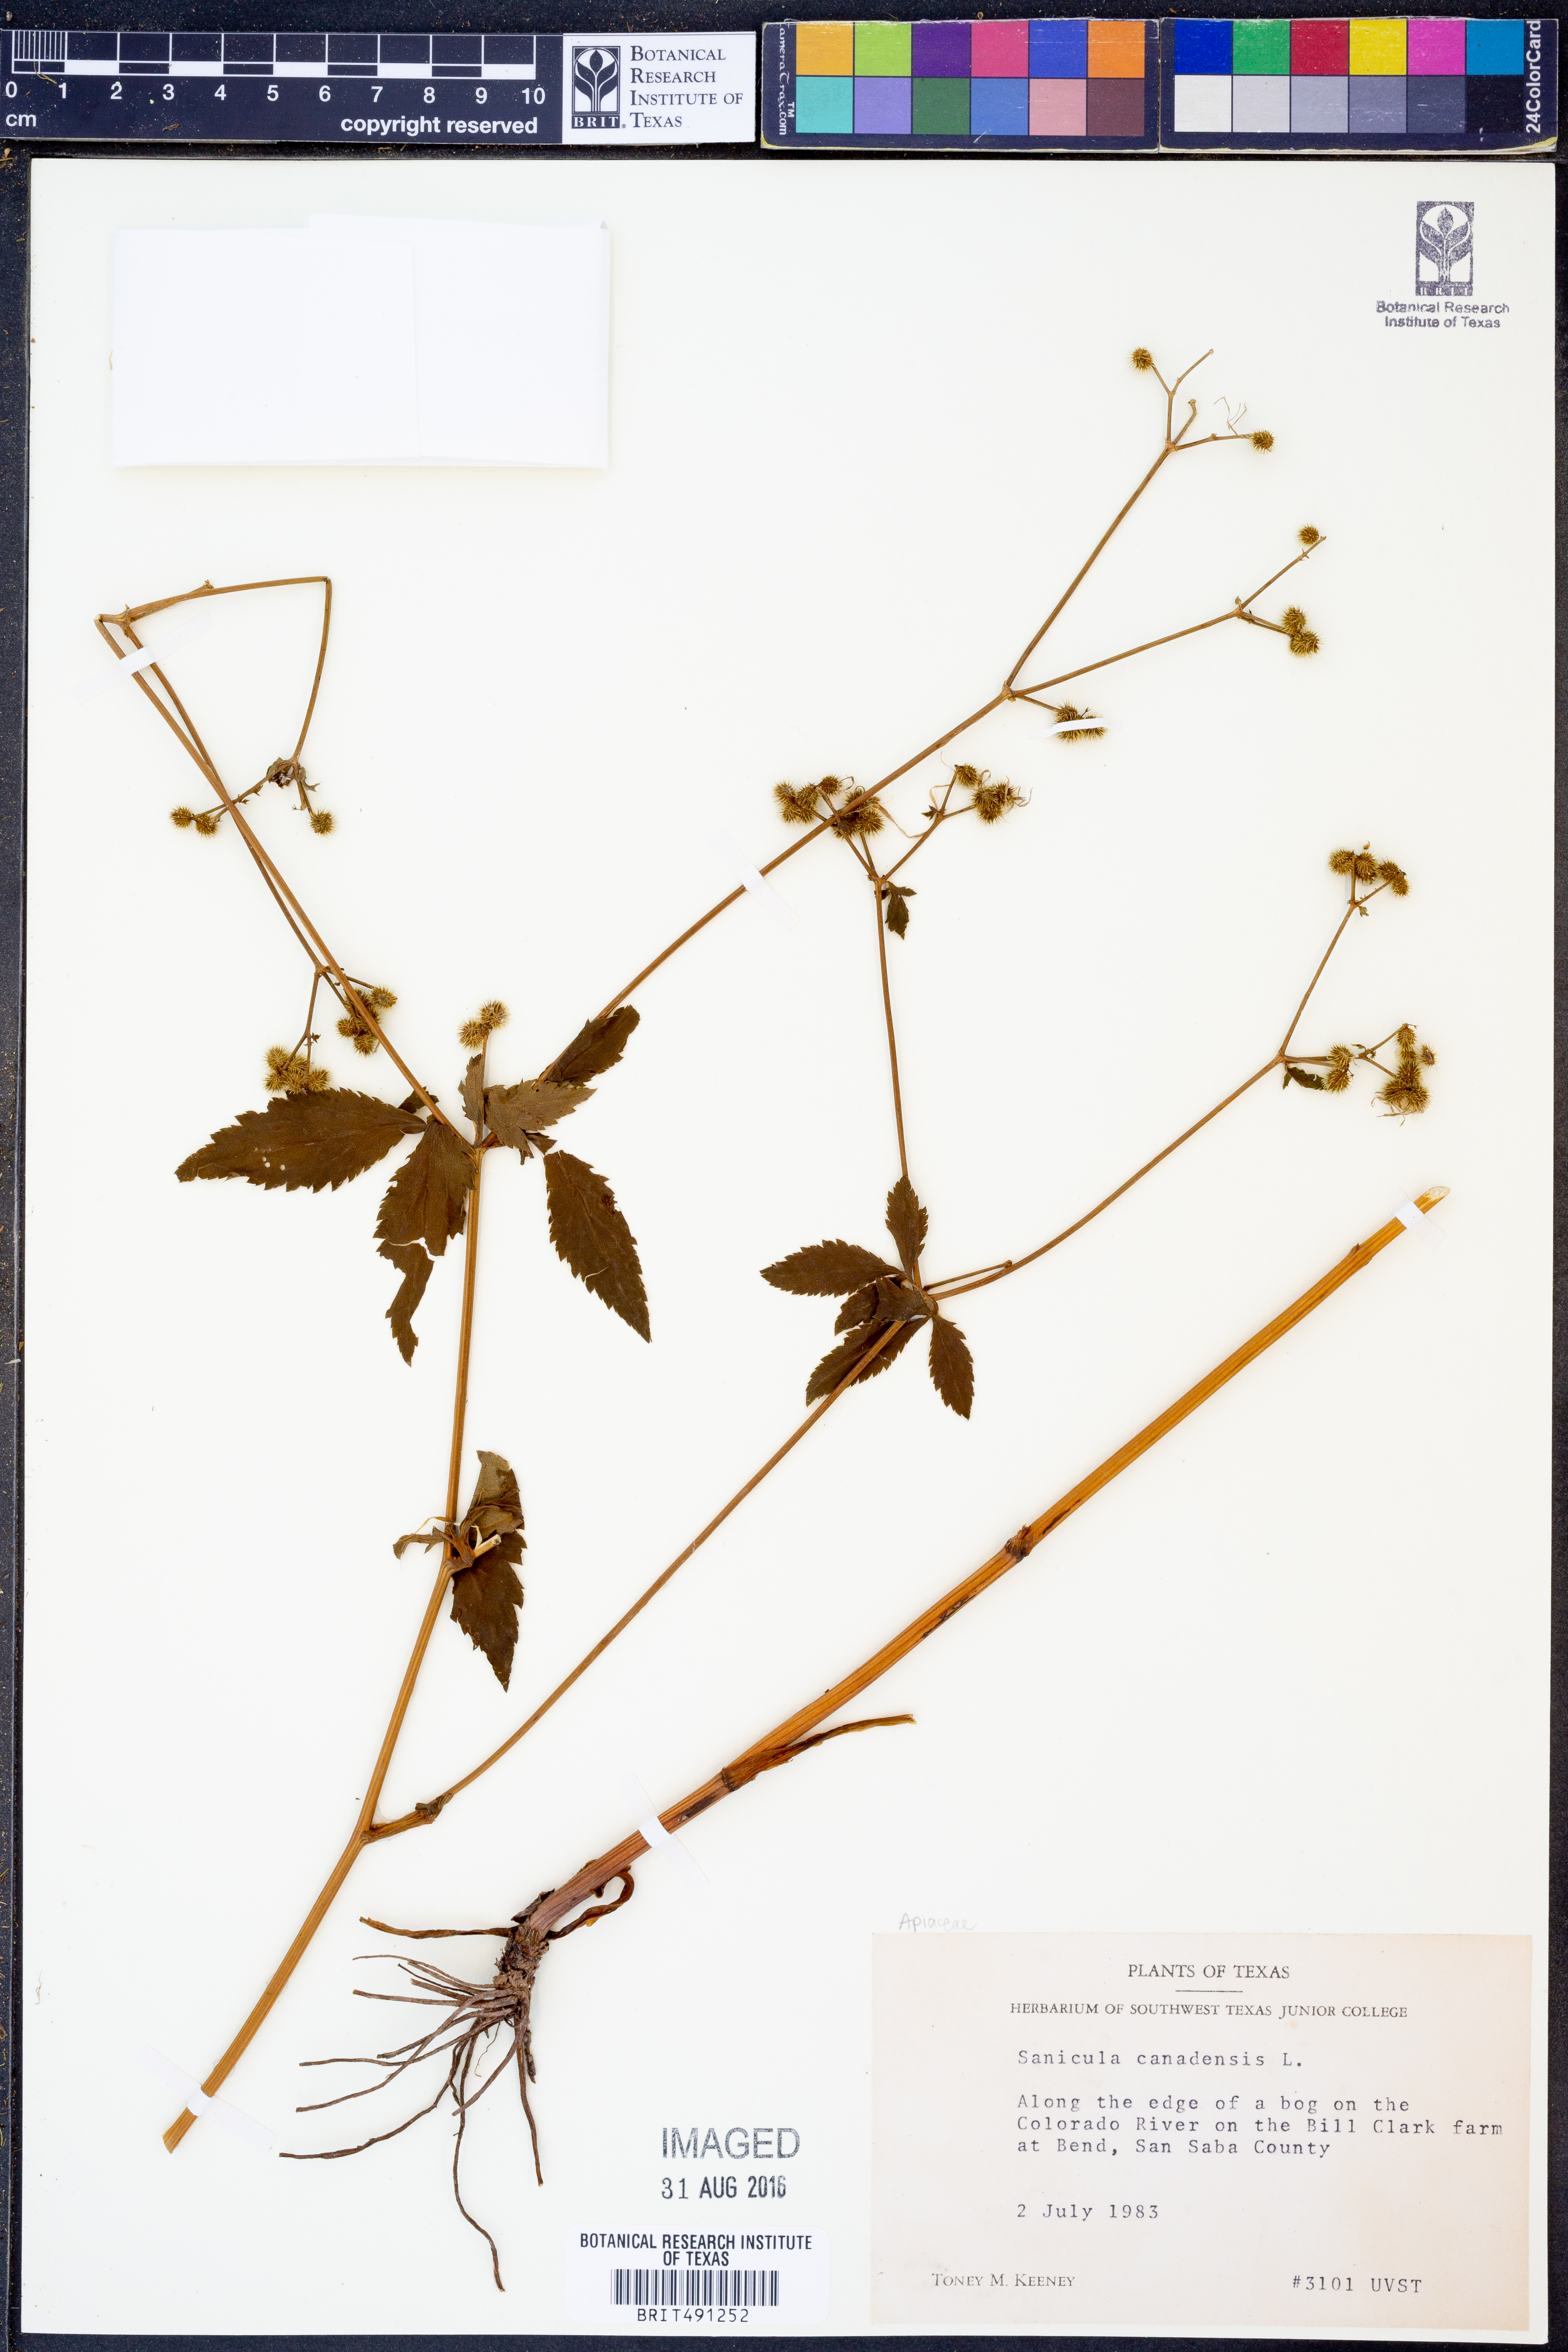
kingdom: Plantae
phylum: Tracheophyta
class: Magnoliopsida
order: Apiales
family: Apiaceae
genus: Sanicula
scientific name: Sanicula canadensis
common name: Canada sanicle
